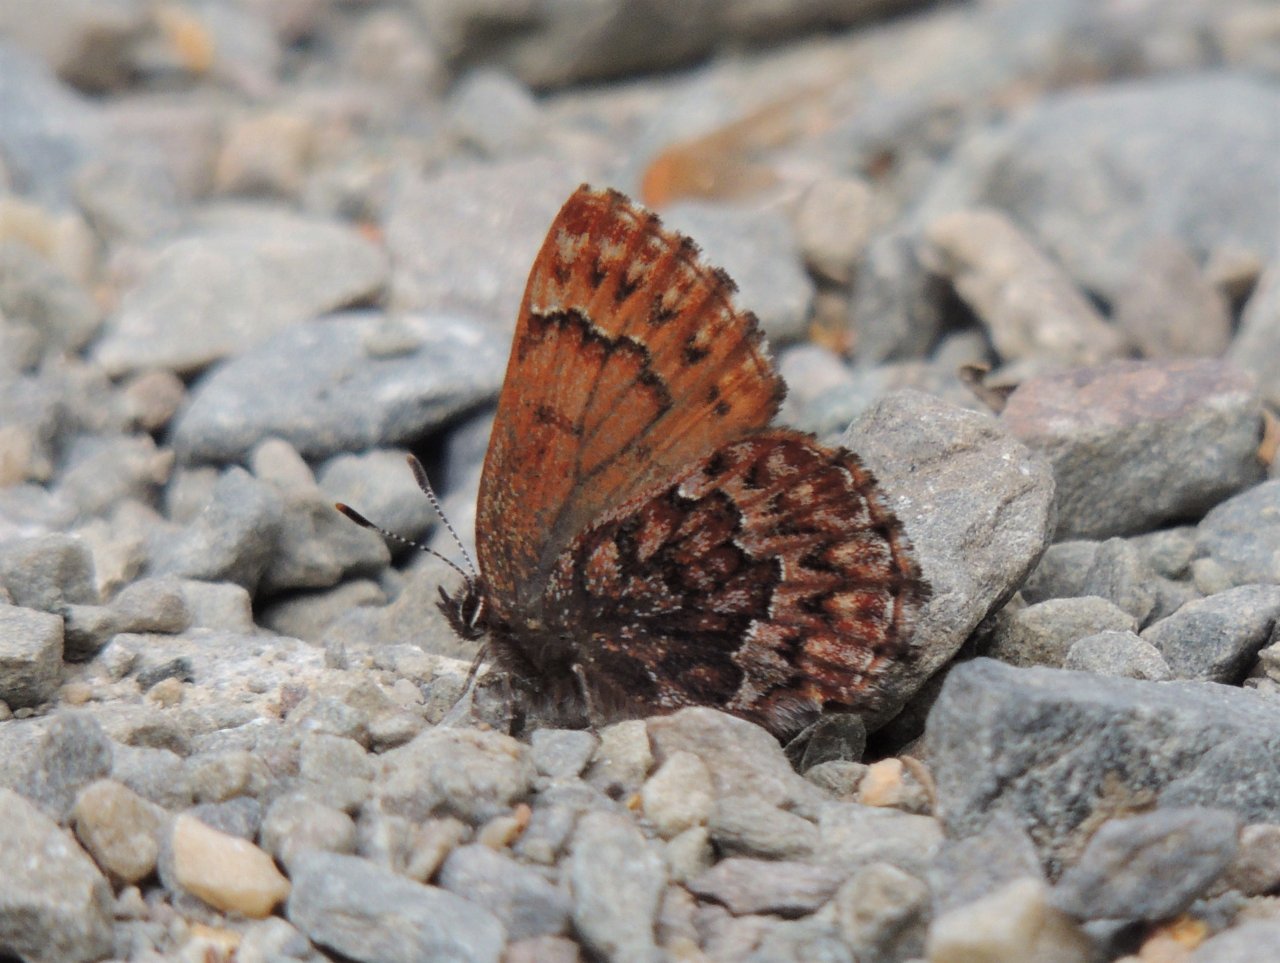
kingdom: Animalia
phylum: Arthropoda
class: Insecta
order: Lepidoptera
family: Lycaenidae
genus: Incisalia
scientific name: Incisalia eryphon
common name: Western Pine Elfin
